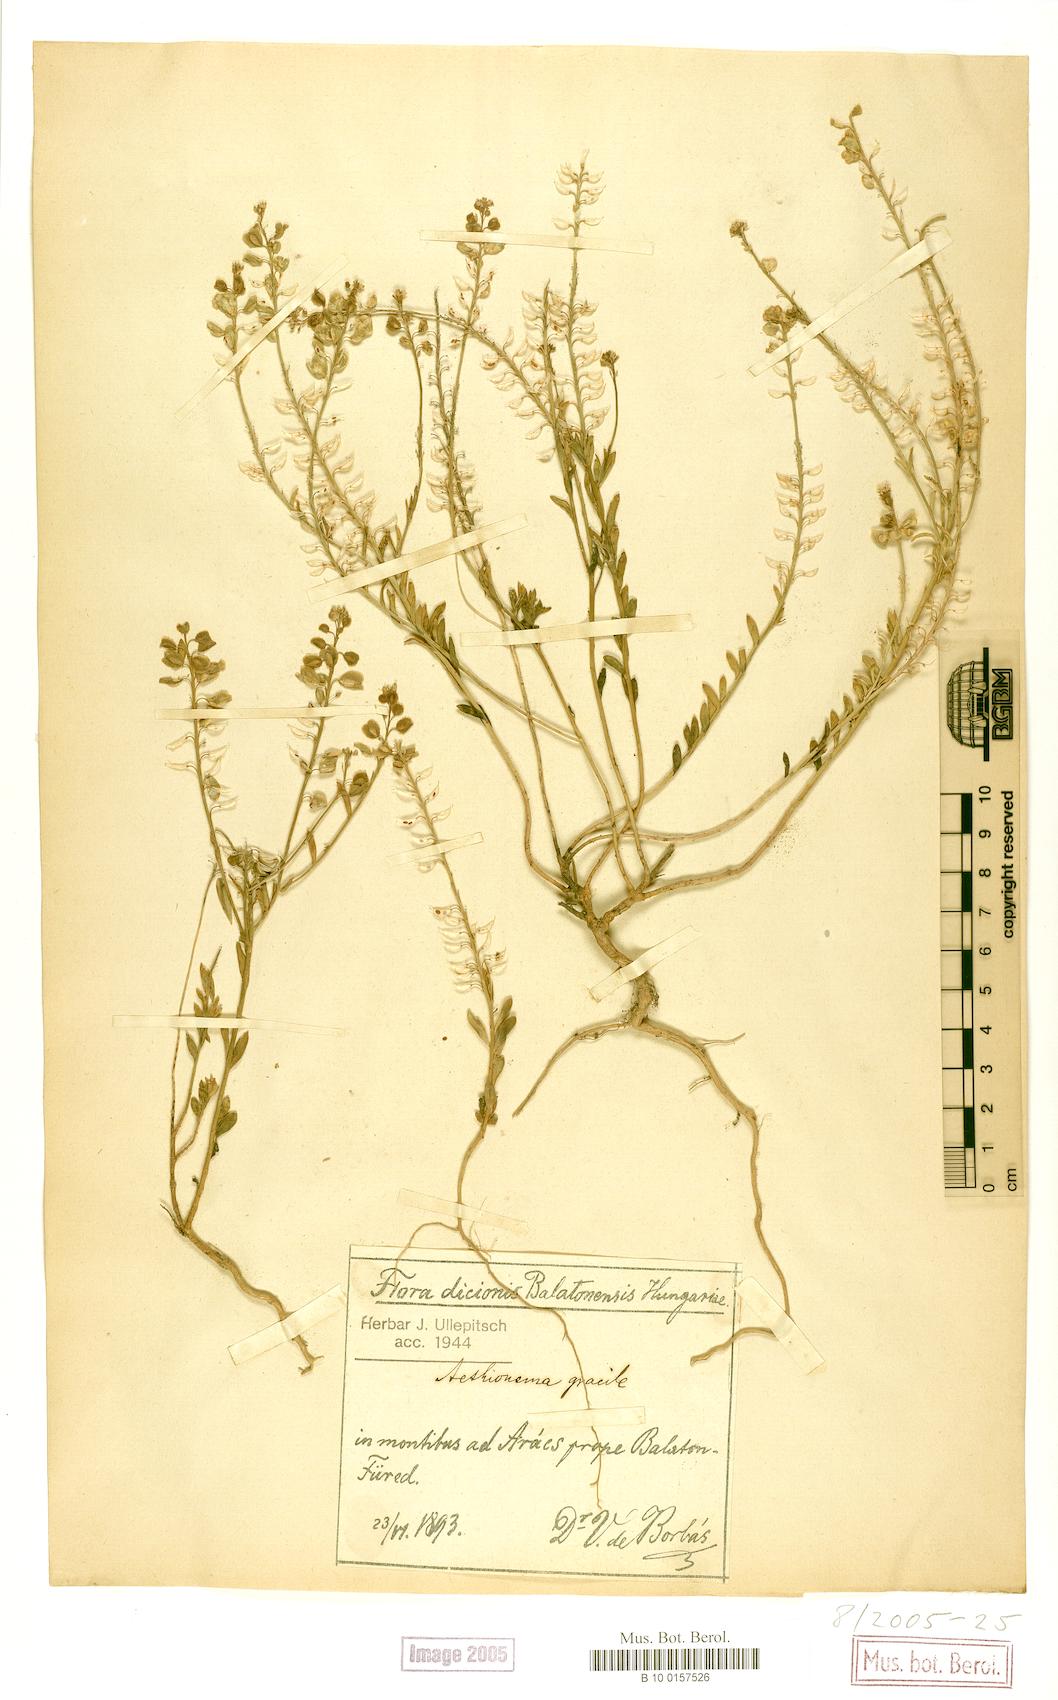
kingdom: Plantae
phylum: Tracheophyta
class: Magnoliopsida
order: Brassicales
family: Brassicaceae
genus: Aethionema
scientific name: Aethionema saxatile
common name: Burnt candytuft
